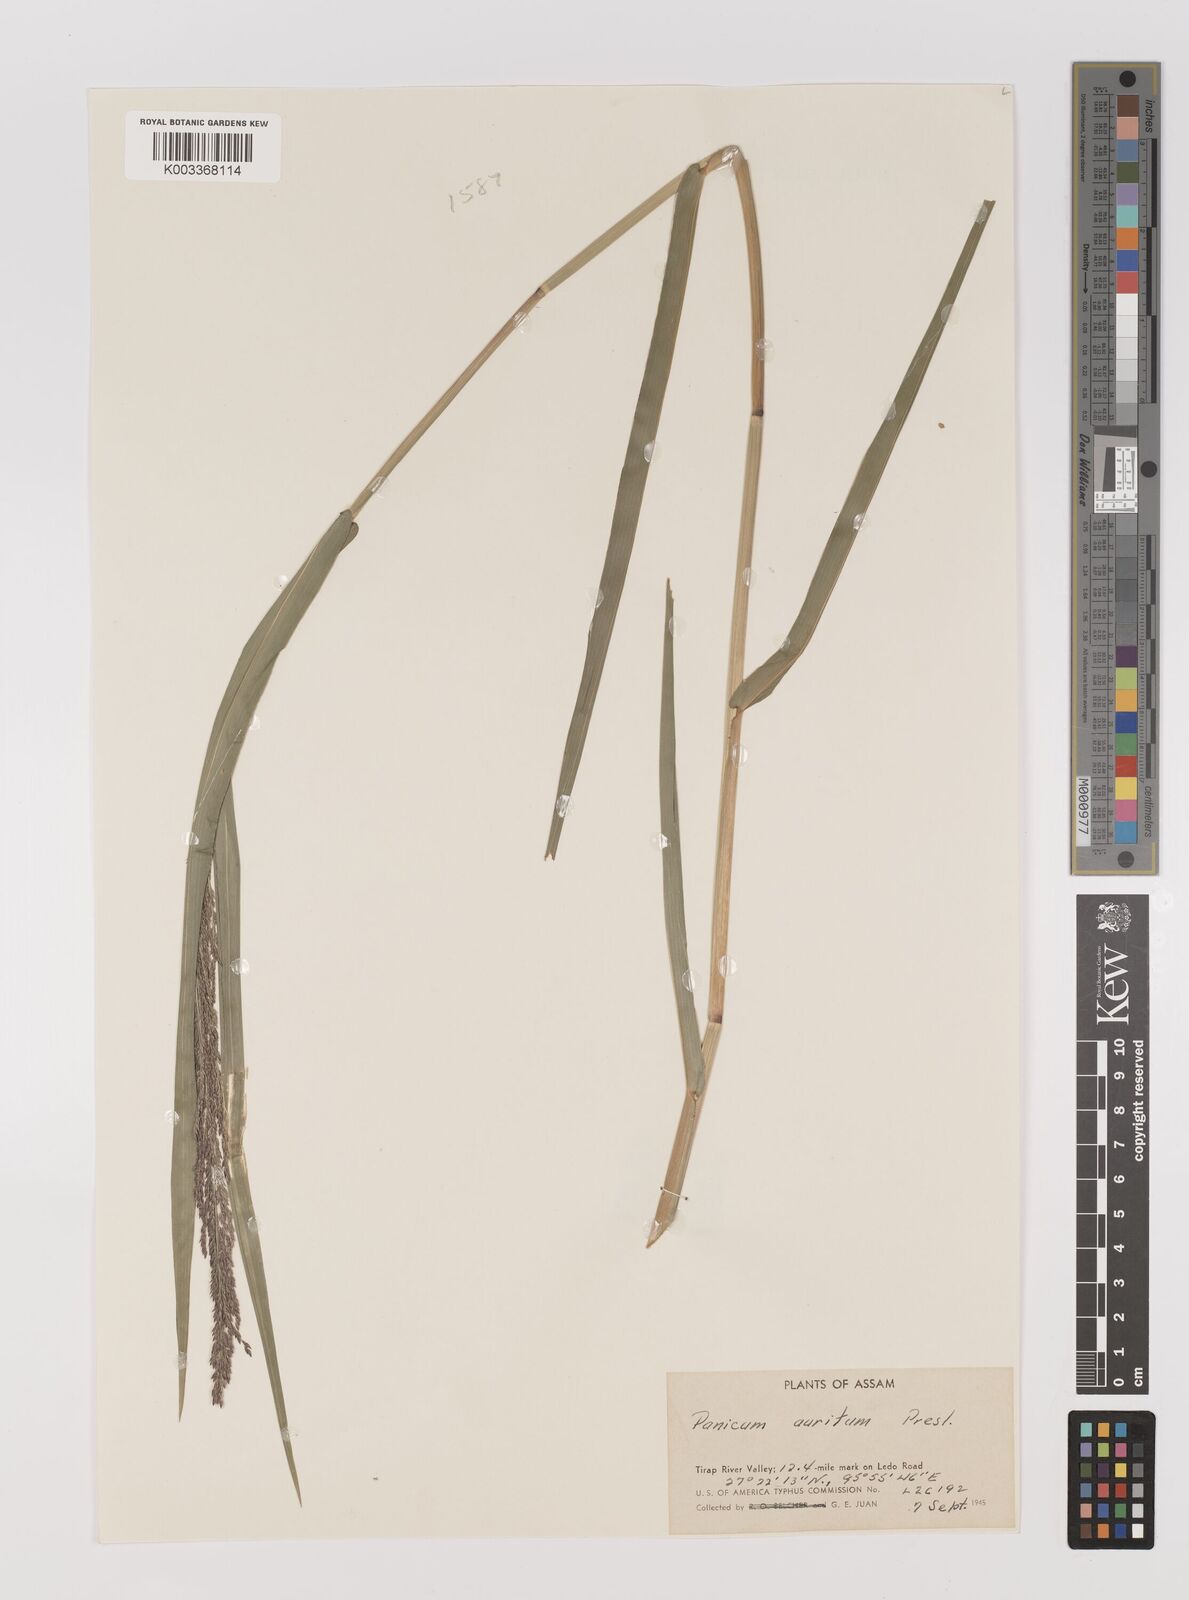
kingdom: Plantae
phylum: Tracheophyta
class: Liliopsida
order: Poales
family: Poaceae
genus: Hymenachne
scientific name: Hymenachne aurita
